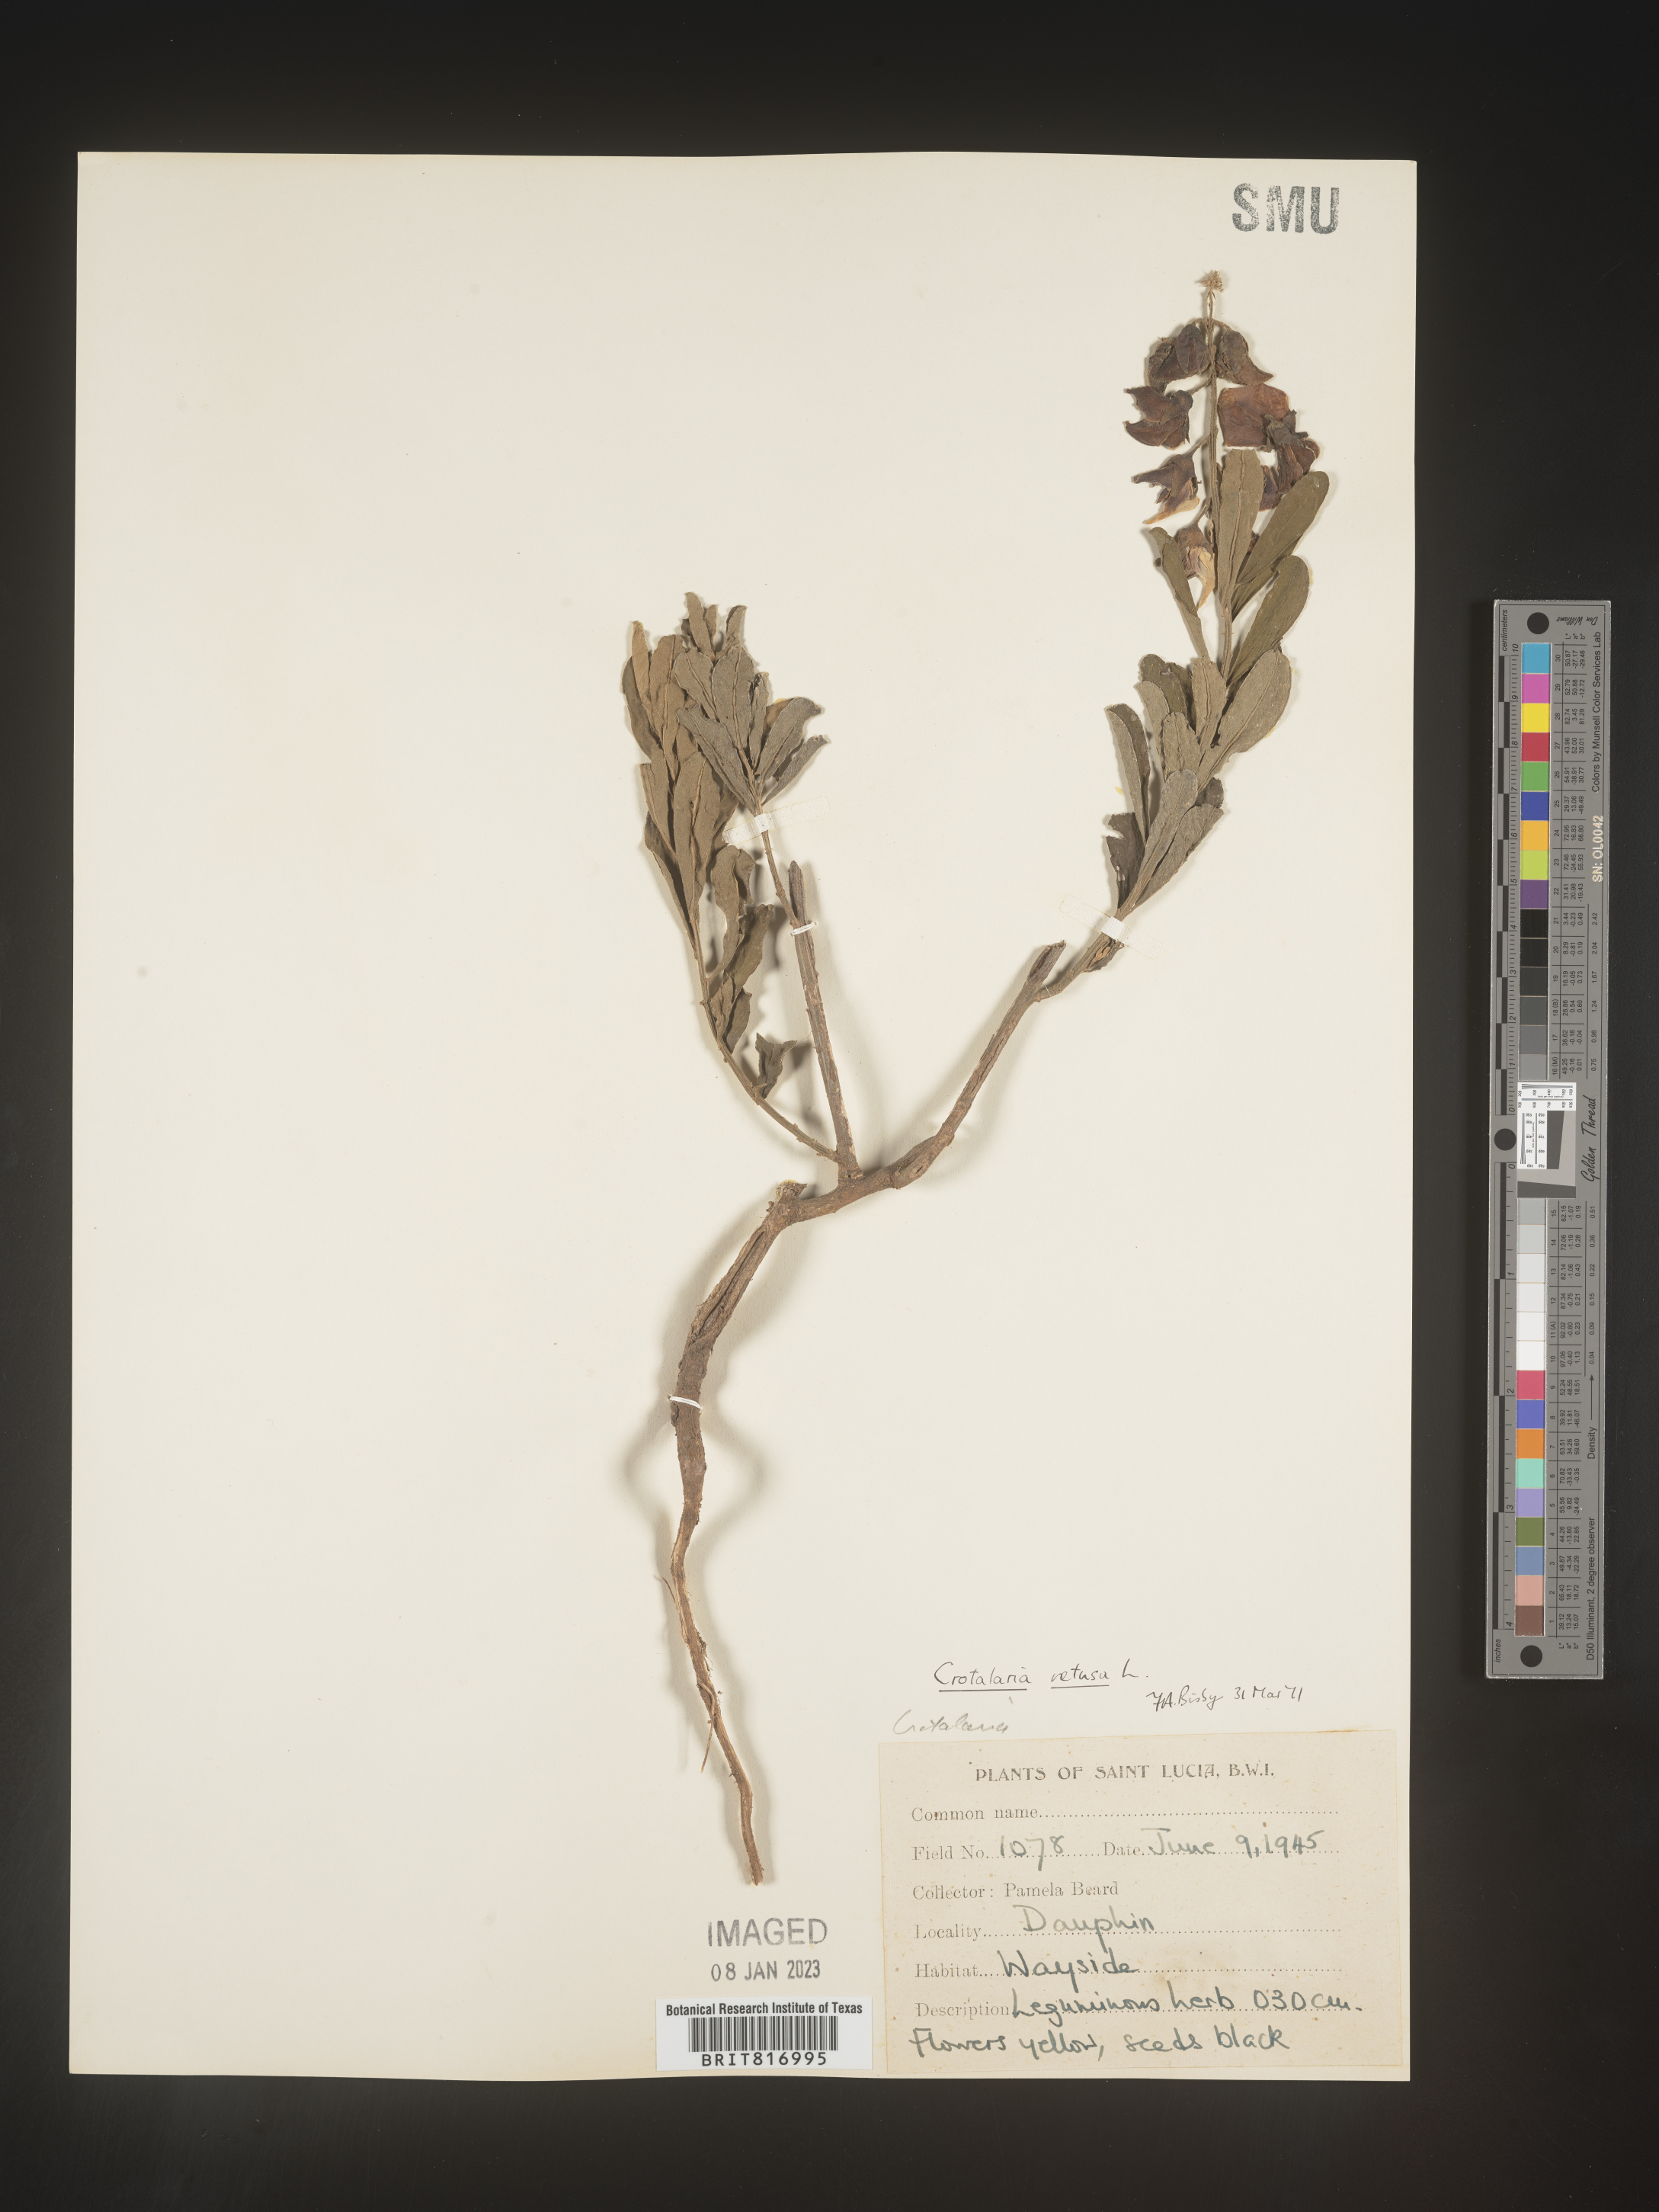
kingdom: Plantae
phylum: Tracheophyta
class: Magnoliopsida
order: Fabales
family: Fabaceae
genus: Crotalaria
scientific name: Crotalaria
